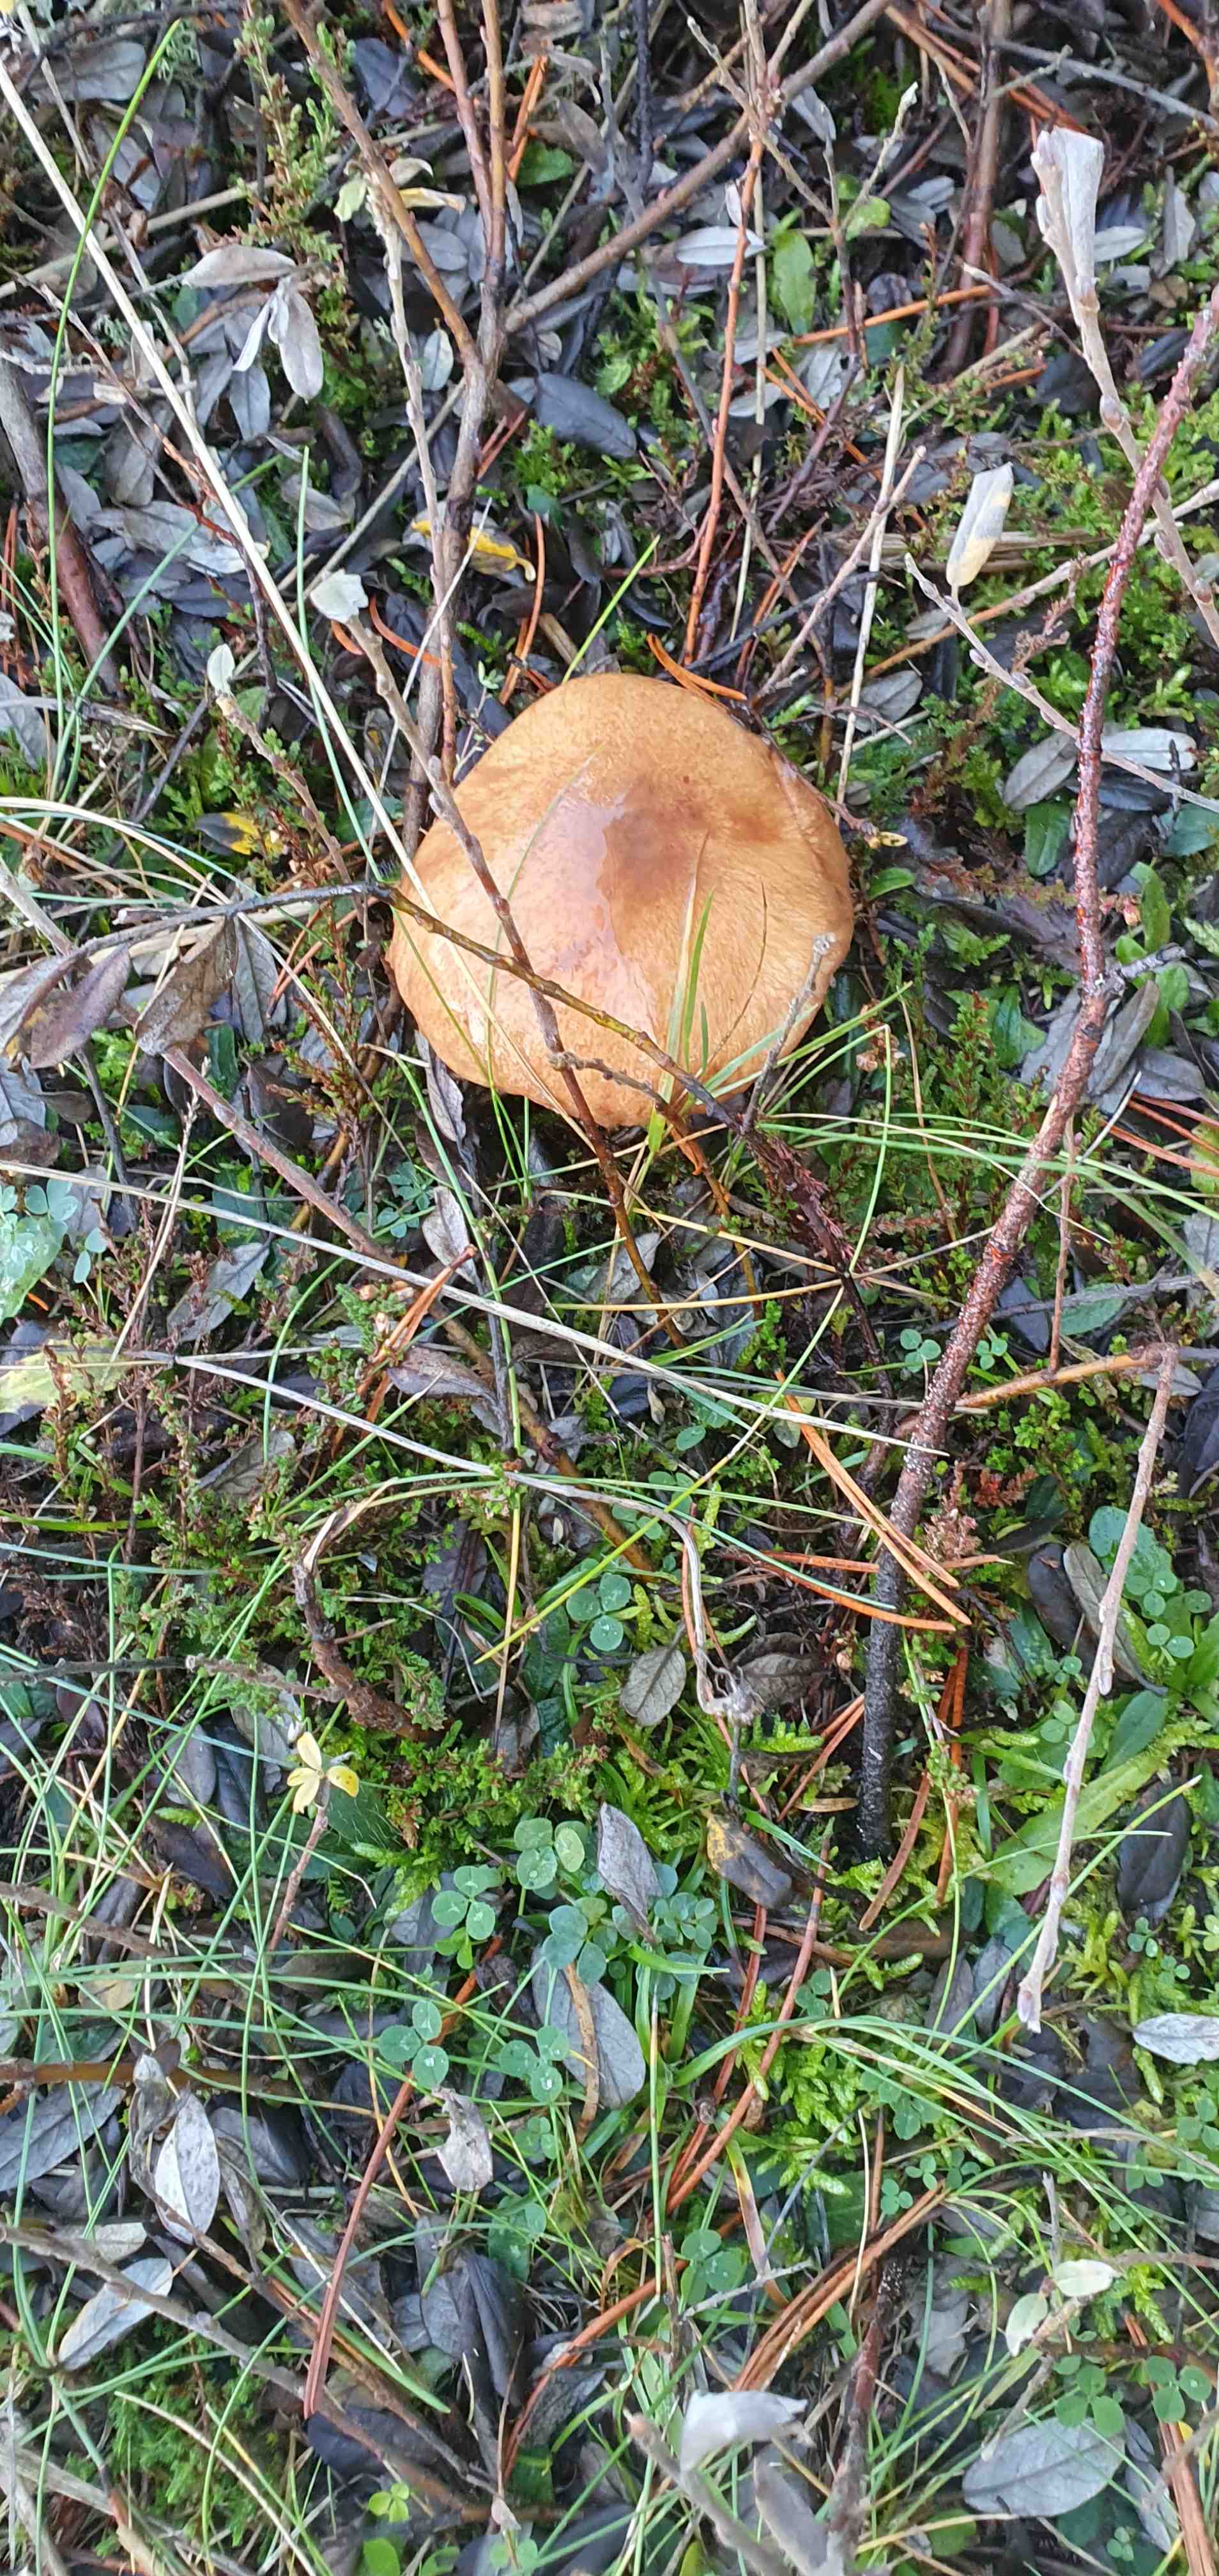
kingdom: Fungi
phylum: Basidiomycota
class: Agaricomycetes
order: Boletales
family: Suillaceae
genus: Suillus
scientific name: Suillus luteus
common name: brungul slimrørhat
